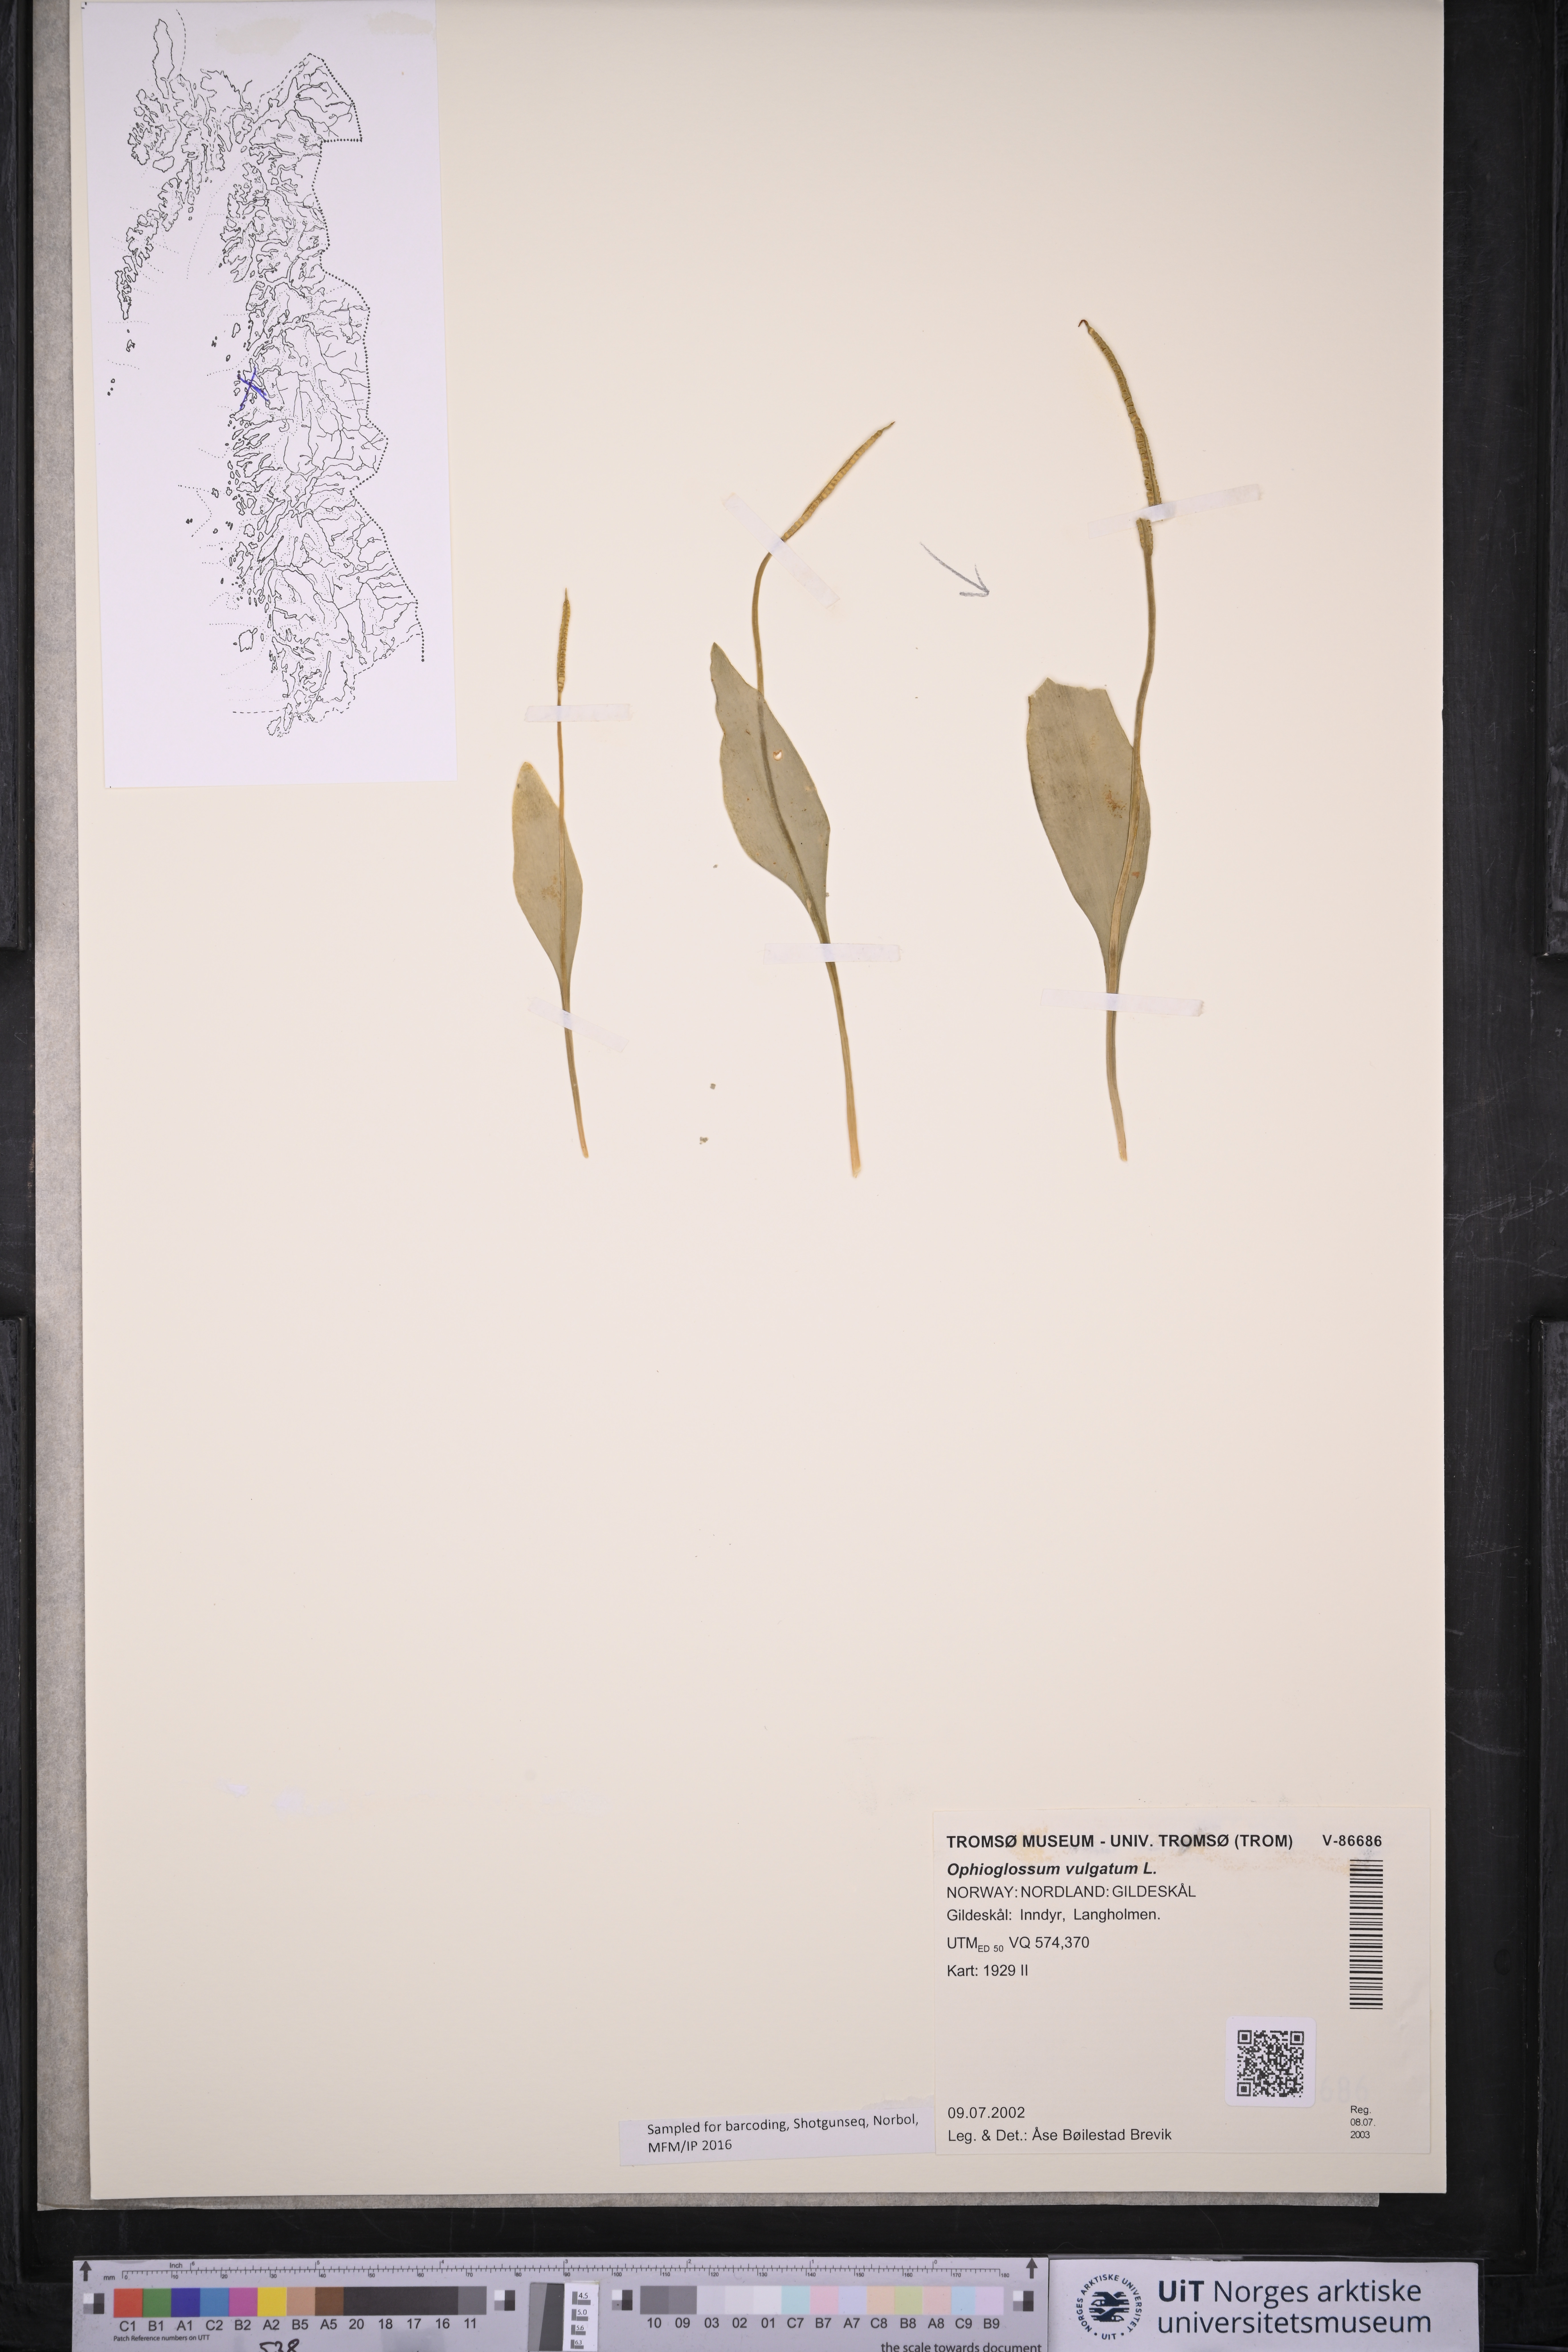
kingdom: Plantae
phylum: Tracheophyta
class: Polypodiopsida
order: Ophioglossales
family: Ophioglossaceae
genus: Ophioglossum
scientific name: Ophioglossum vulgatum
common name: Adder's-tongue
